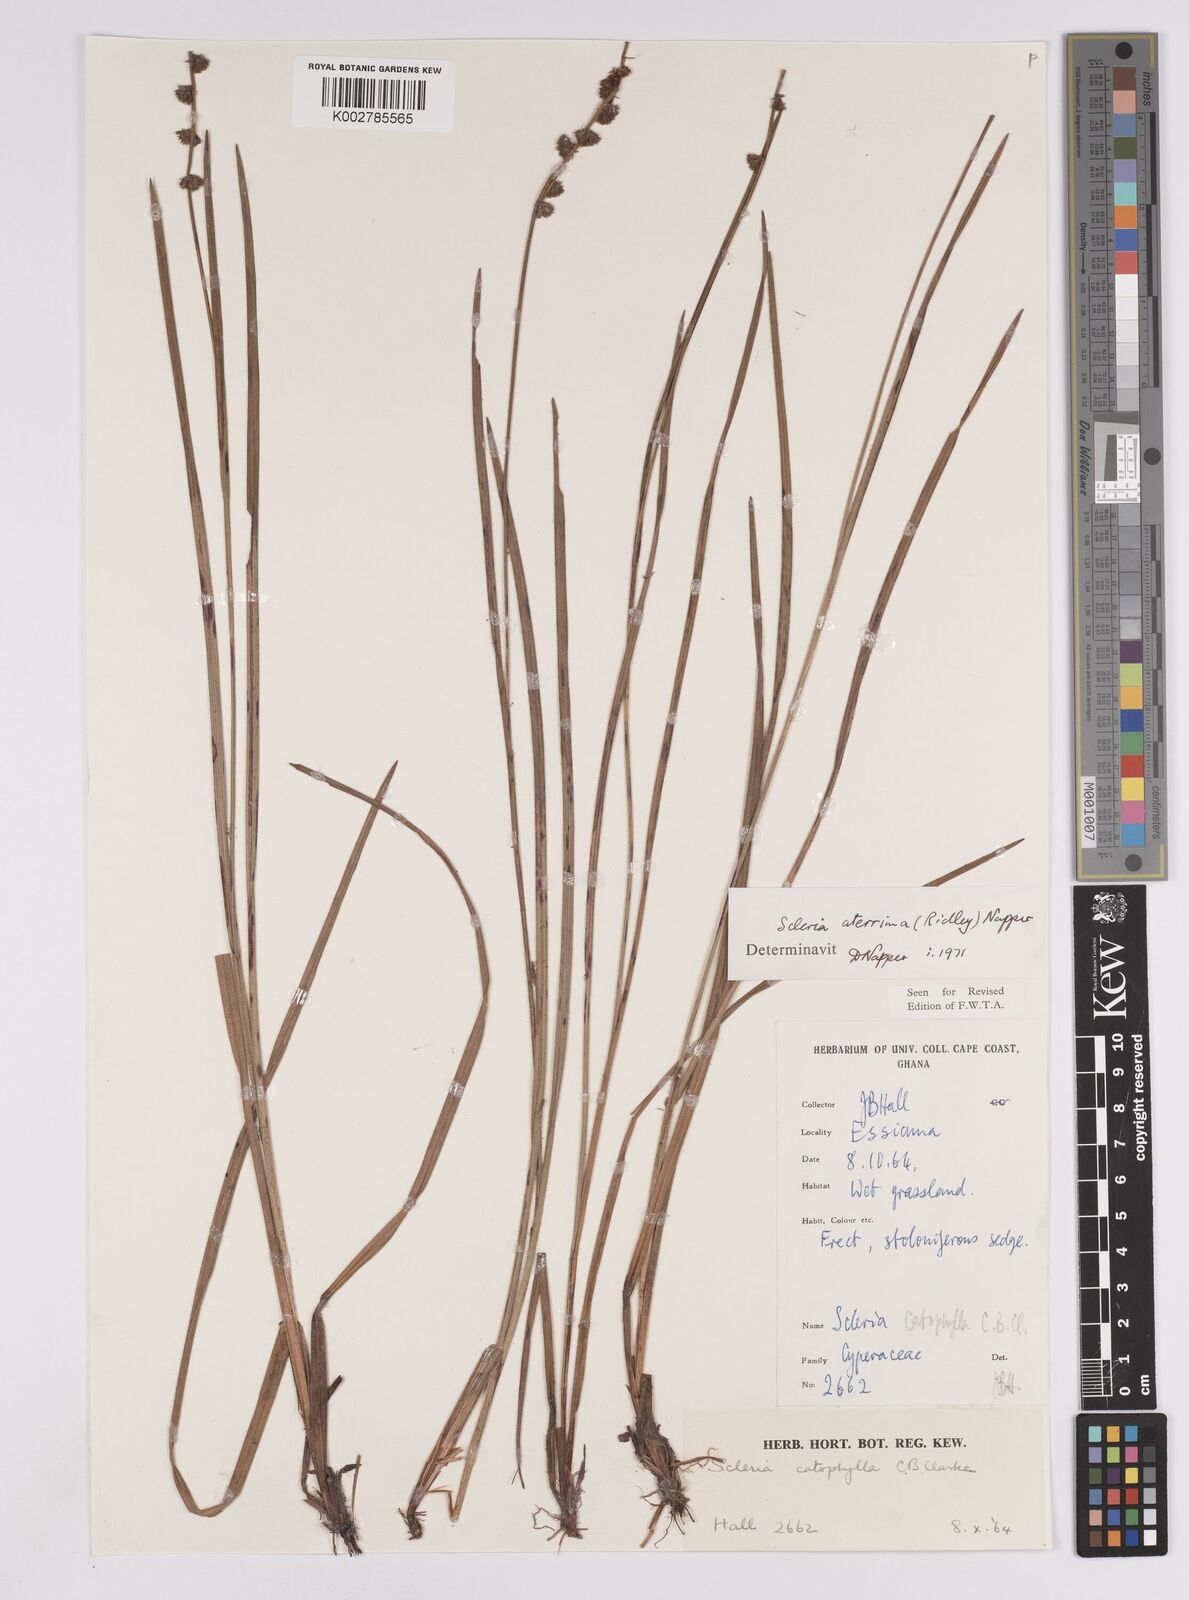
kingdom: Plantae
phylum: Tracheophyta
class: Liliopsida
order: Poales
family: Cyperaceae
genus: Scleria
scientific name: Scleria catophylla
